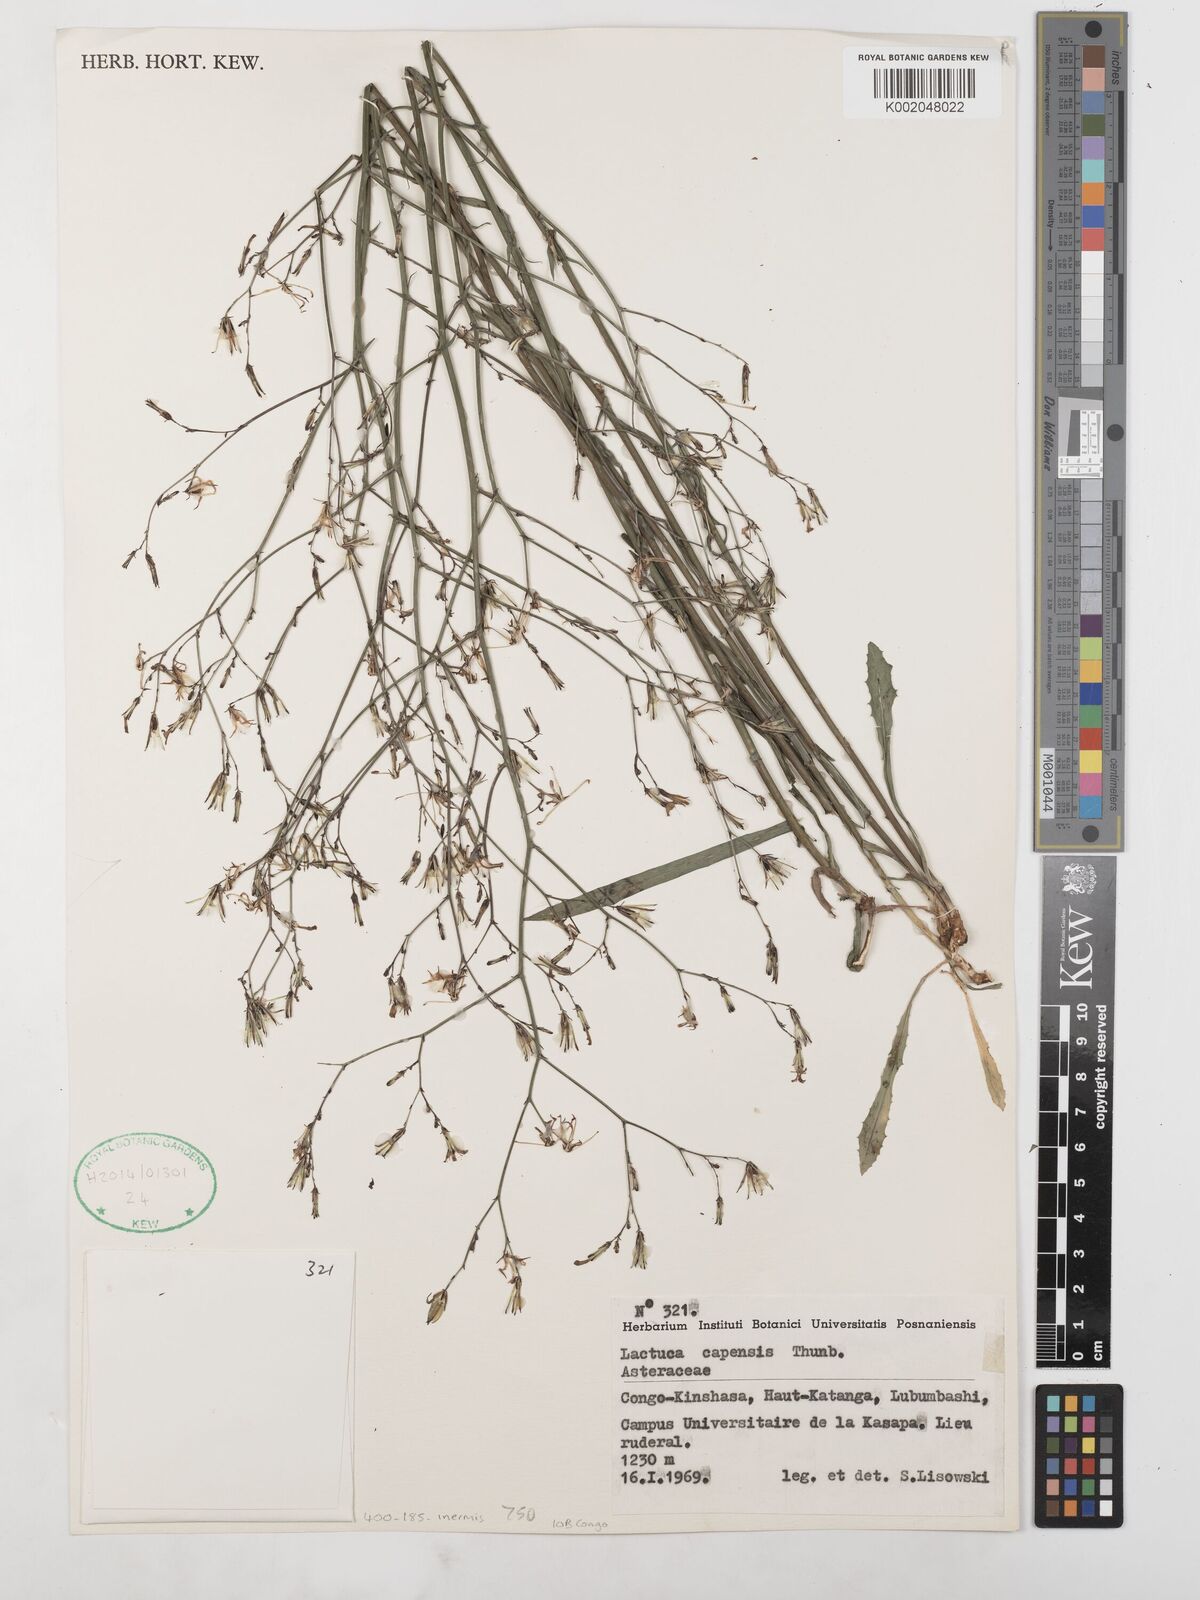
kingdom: Plantae
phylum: Tracheophyta
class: Magnoliopsida
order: Asterales
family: Asteraceae
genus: Lactuca
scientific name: Lactuca inermis
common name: Wild lettuce
